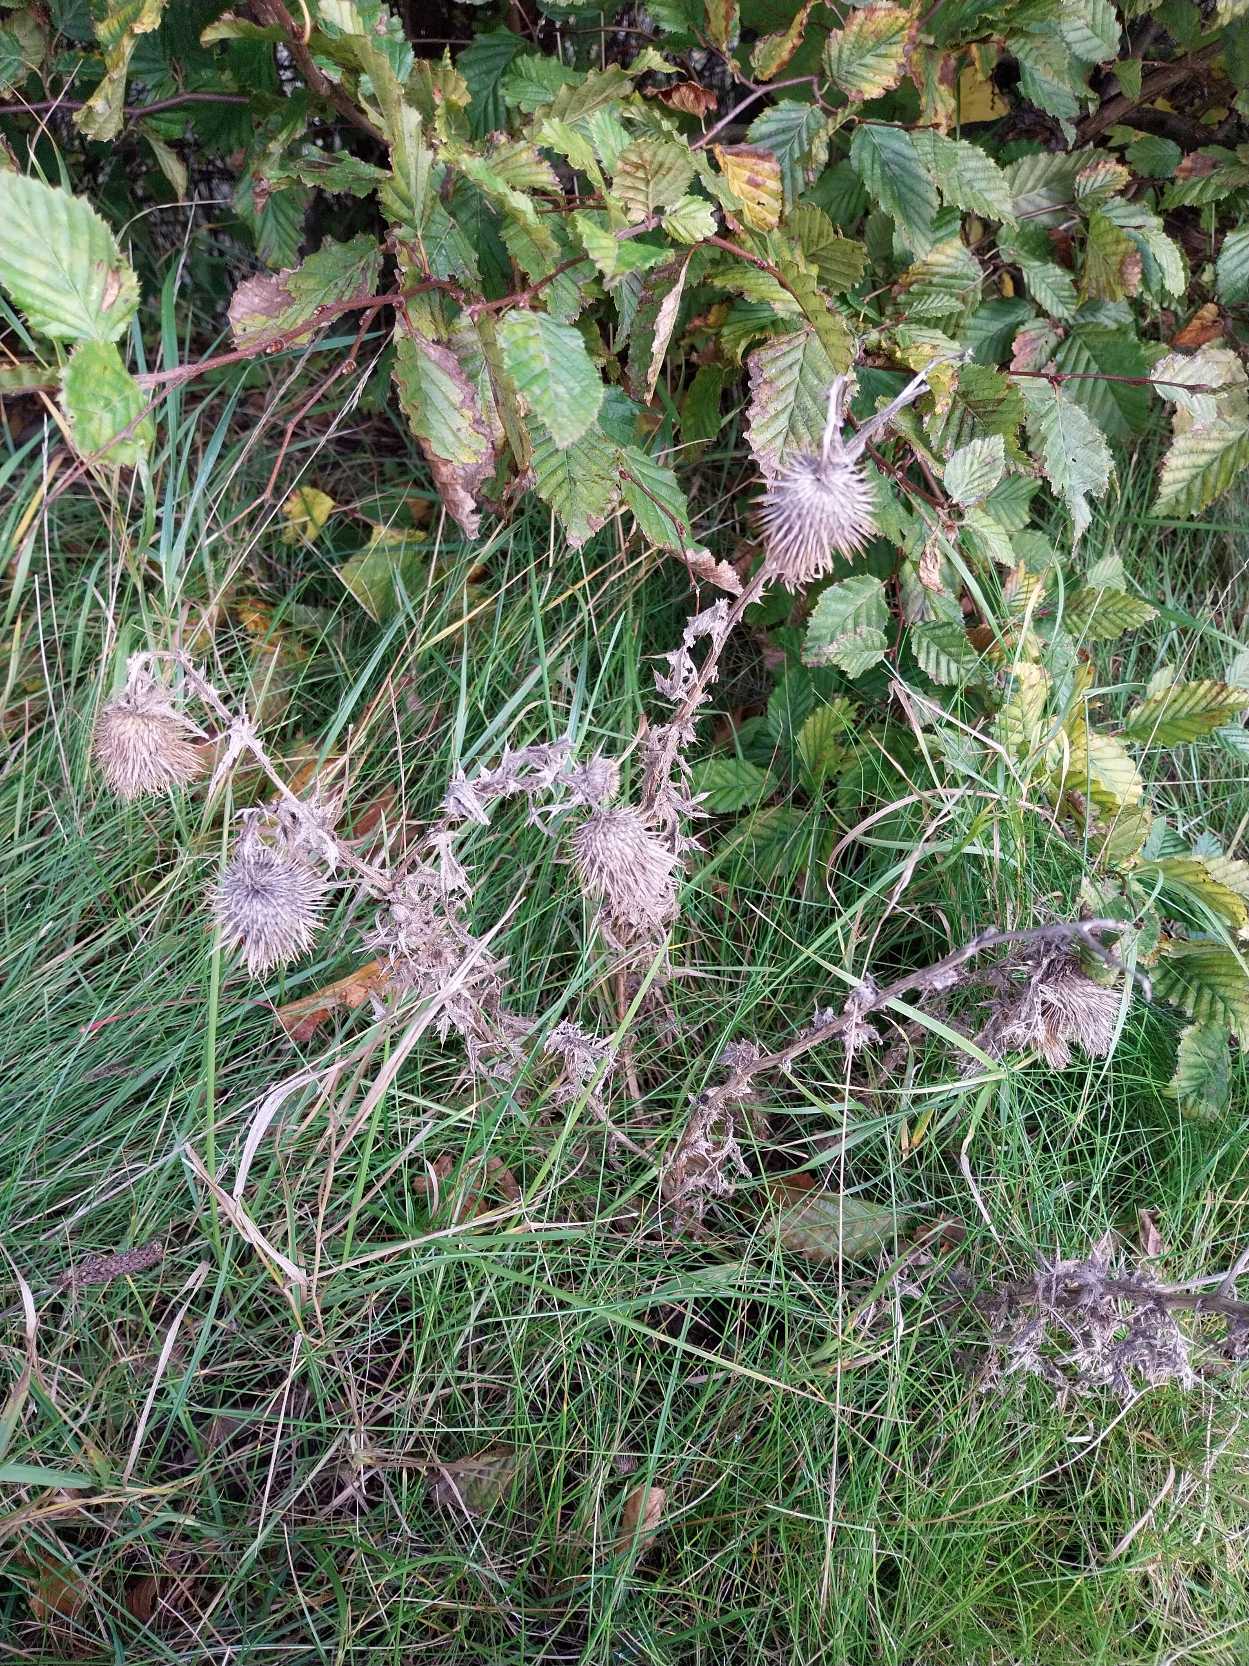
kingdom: Plantae
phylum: Tracheophyta
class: Magnoliopsida
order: Asterales
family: Asteraceae
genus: Cirsium
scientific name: Cirsium vulgare
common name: Horse-tidsel
